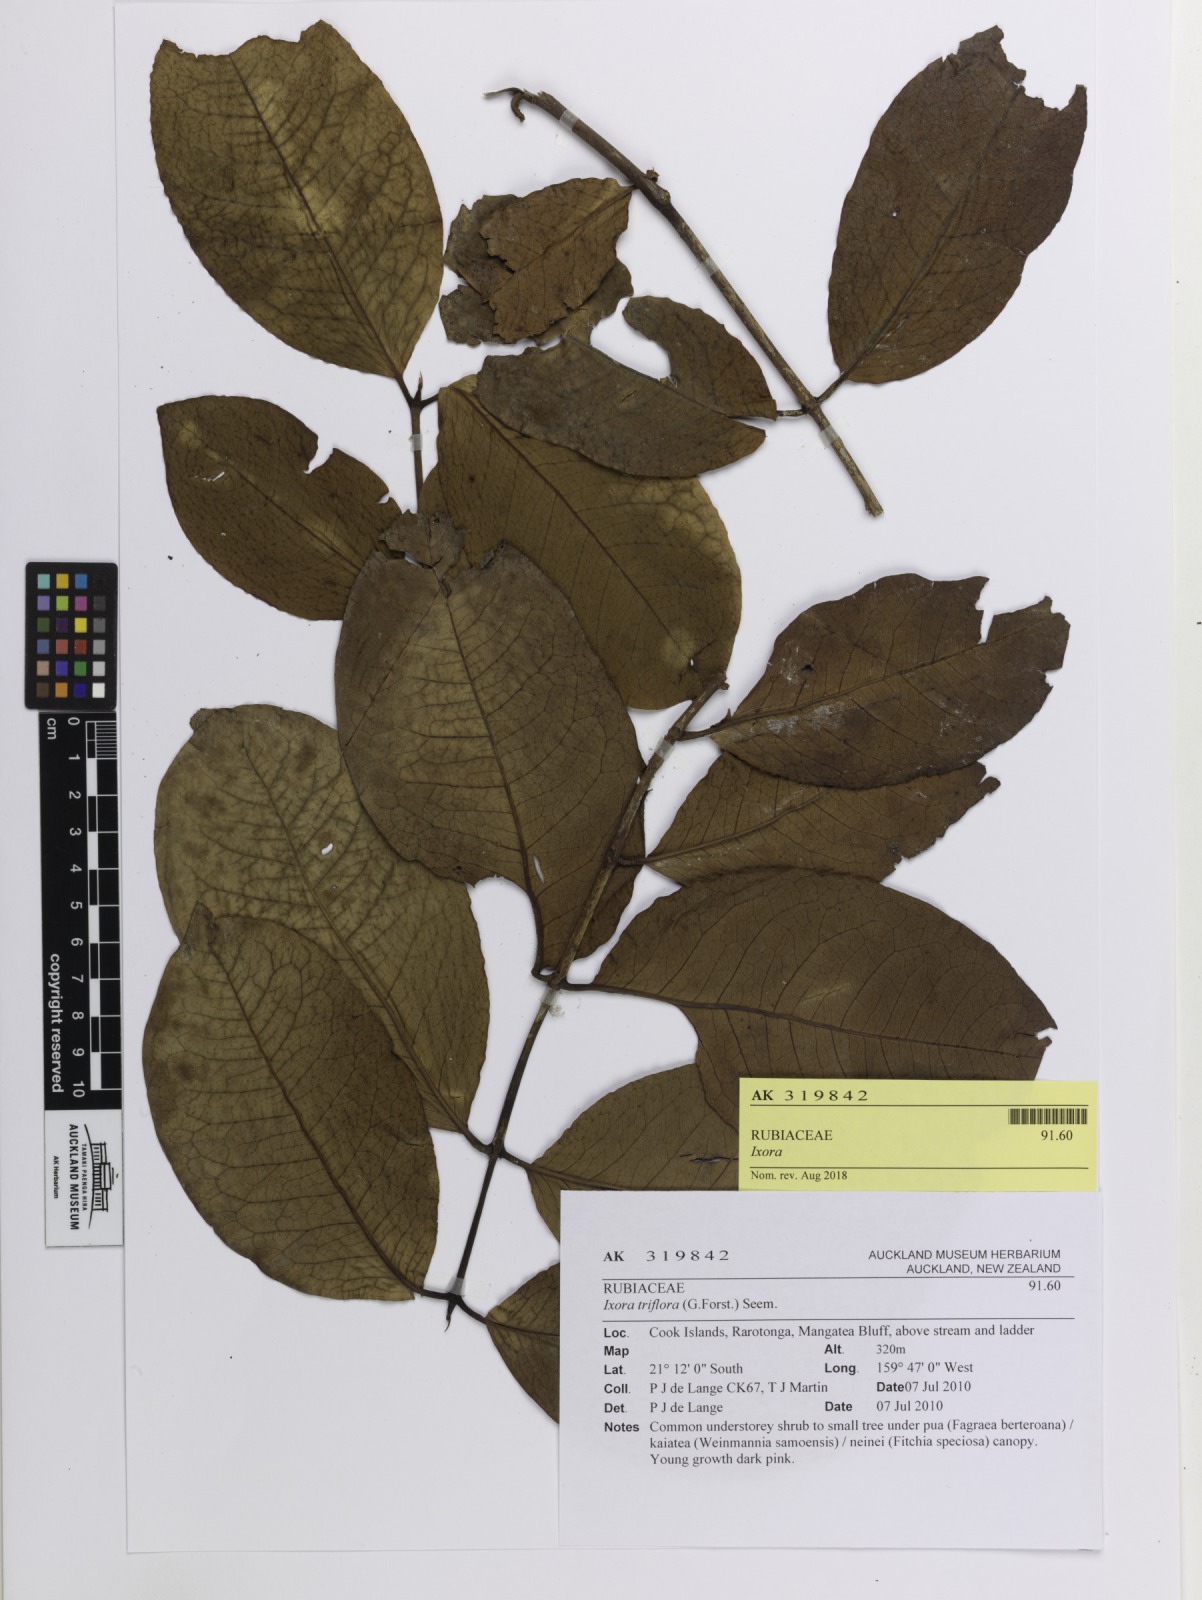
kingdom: Plantae
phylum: Tracheophyta
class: Magnoliopsida
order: Gentianales
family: Rubiaceae
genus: Ixora
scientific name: Ixora
